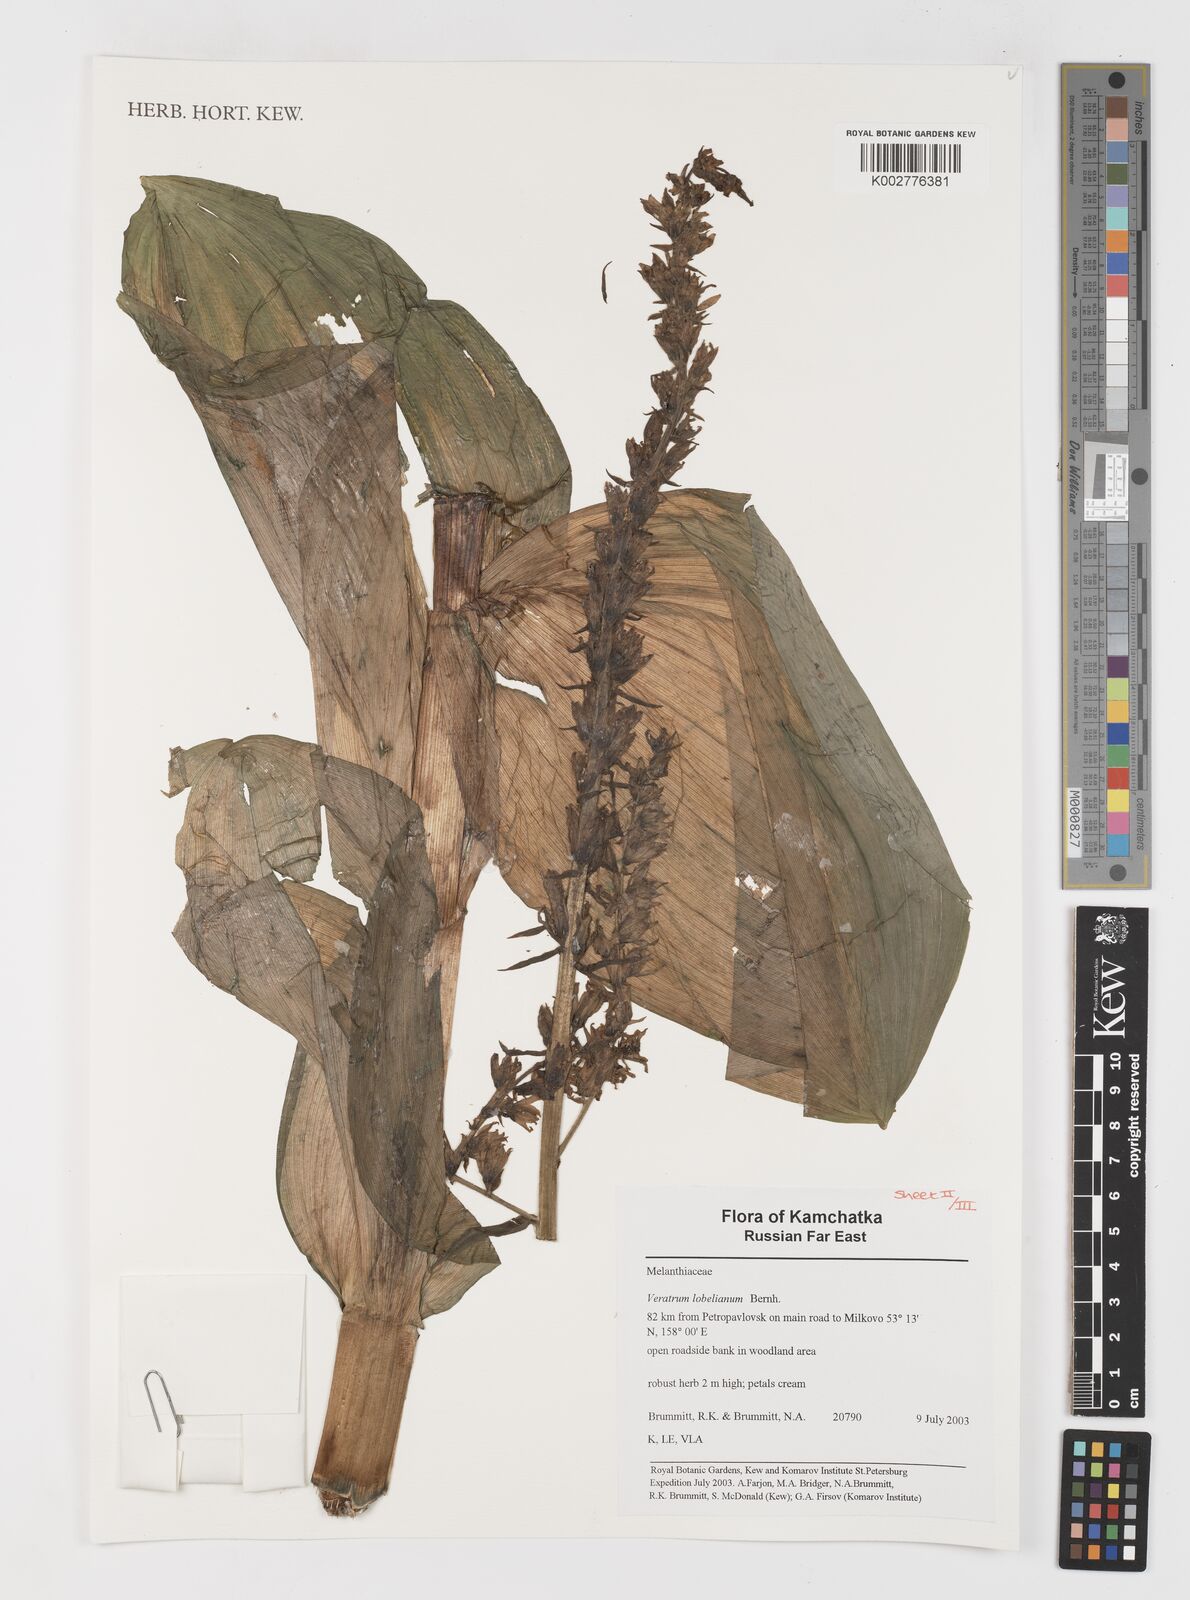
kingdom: Plantae
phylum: Tracheophyta
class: Liliopsida
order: Liliales
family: Melanthiaceae
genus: Veratrum
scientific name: Veratrum lobelianum
